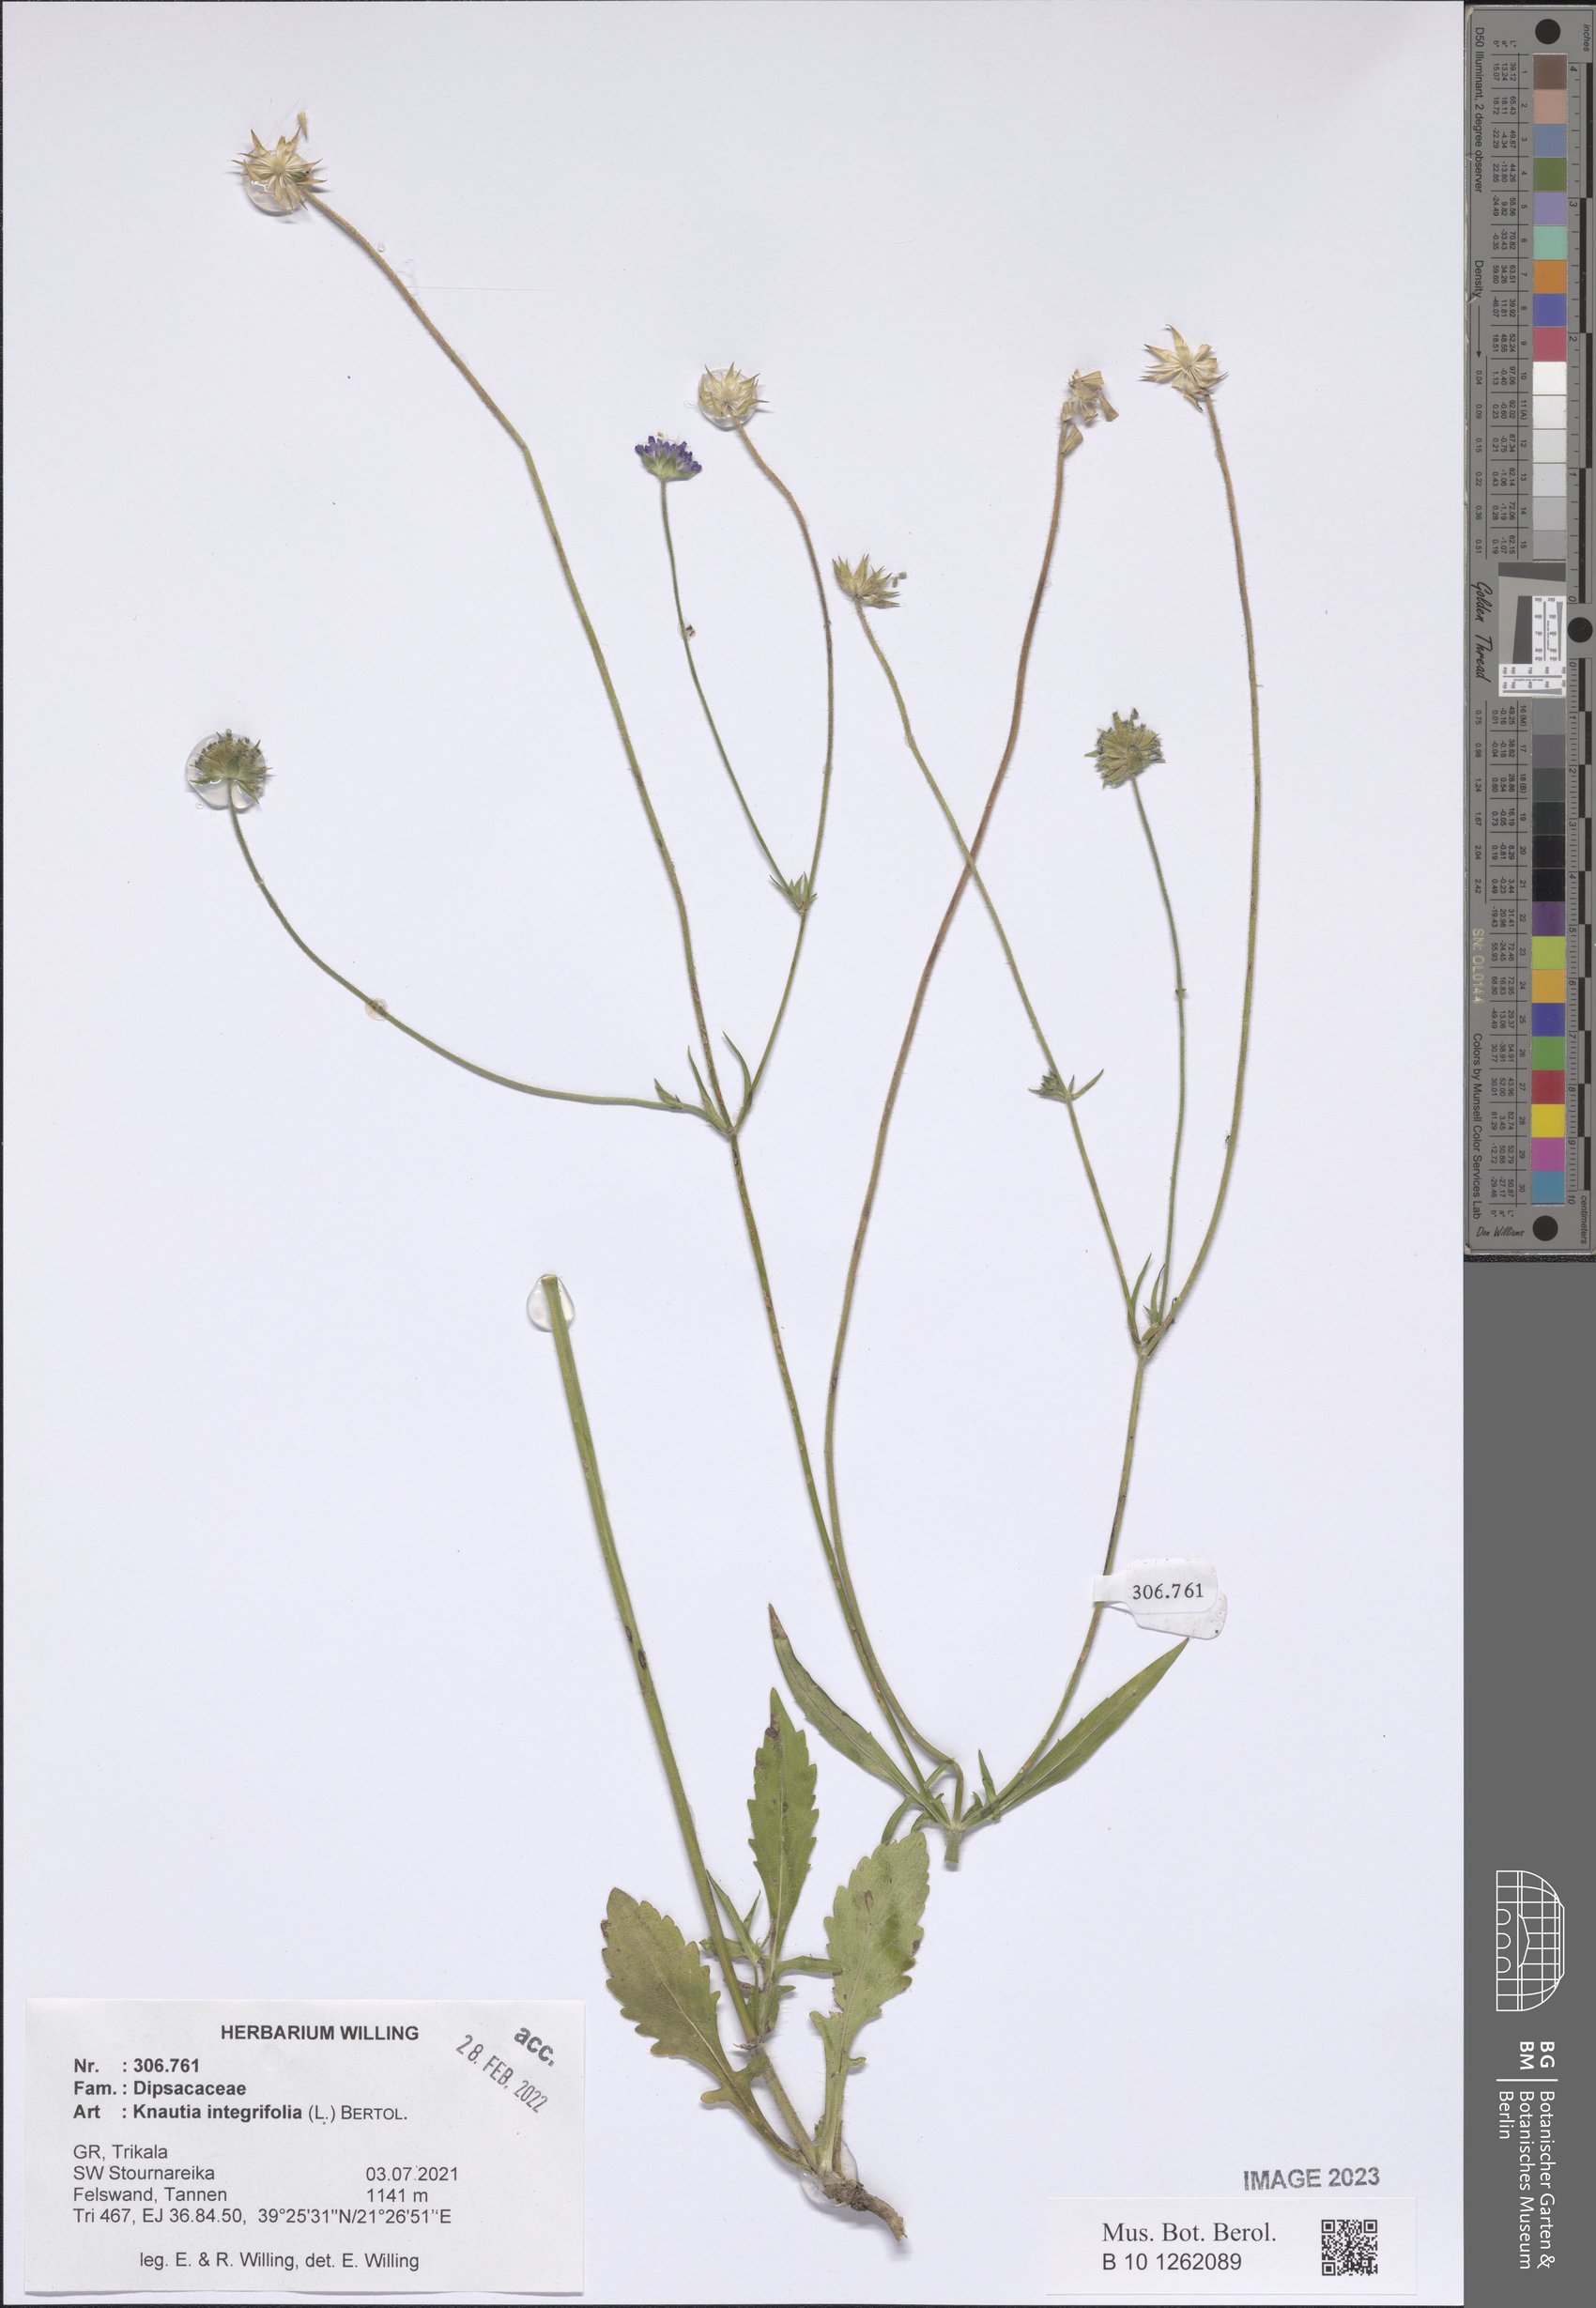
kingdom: Plantae
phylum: Tracheophyta
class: Magnoliopsida
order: Dipsacales
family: Caprifoliaceae
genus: Knautia
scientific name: Knautia integrifolia
